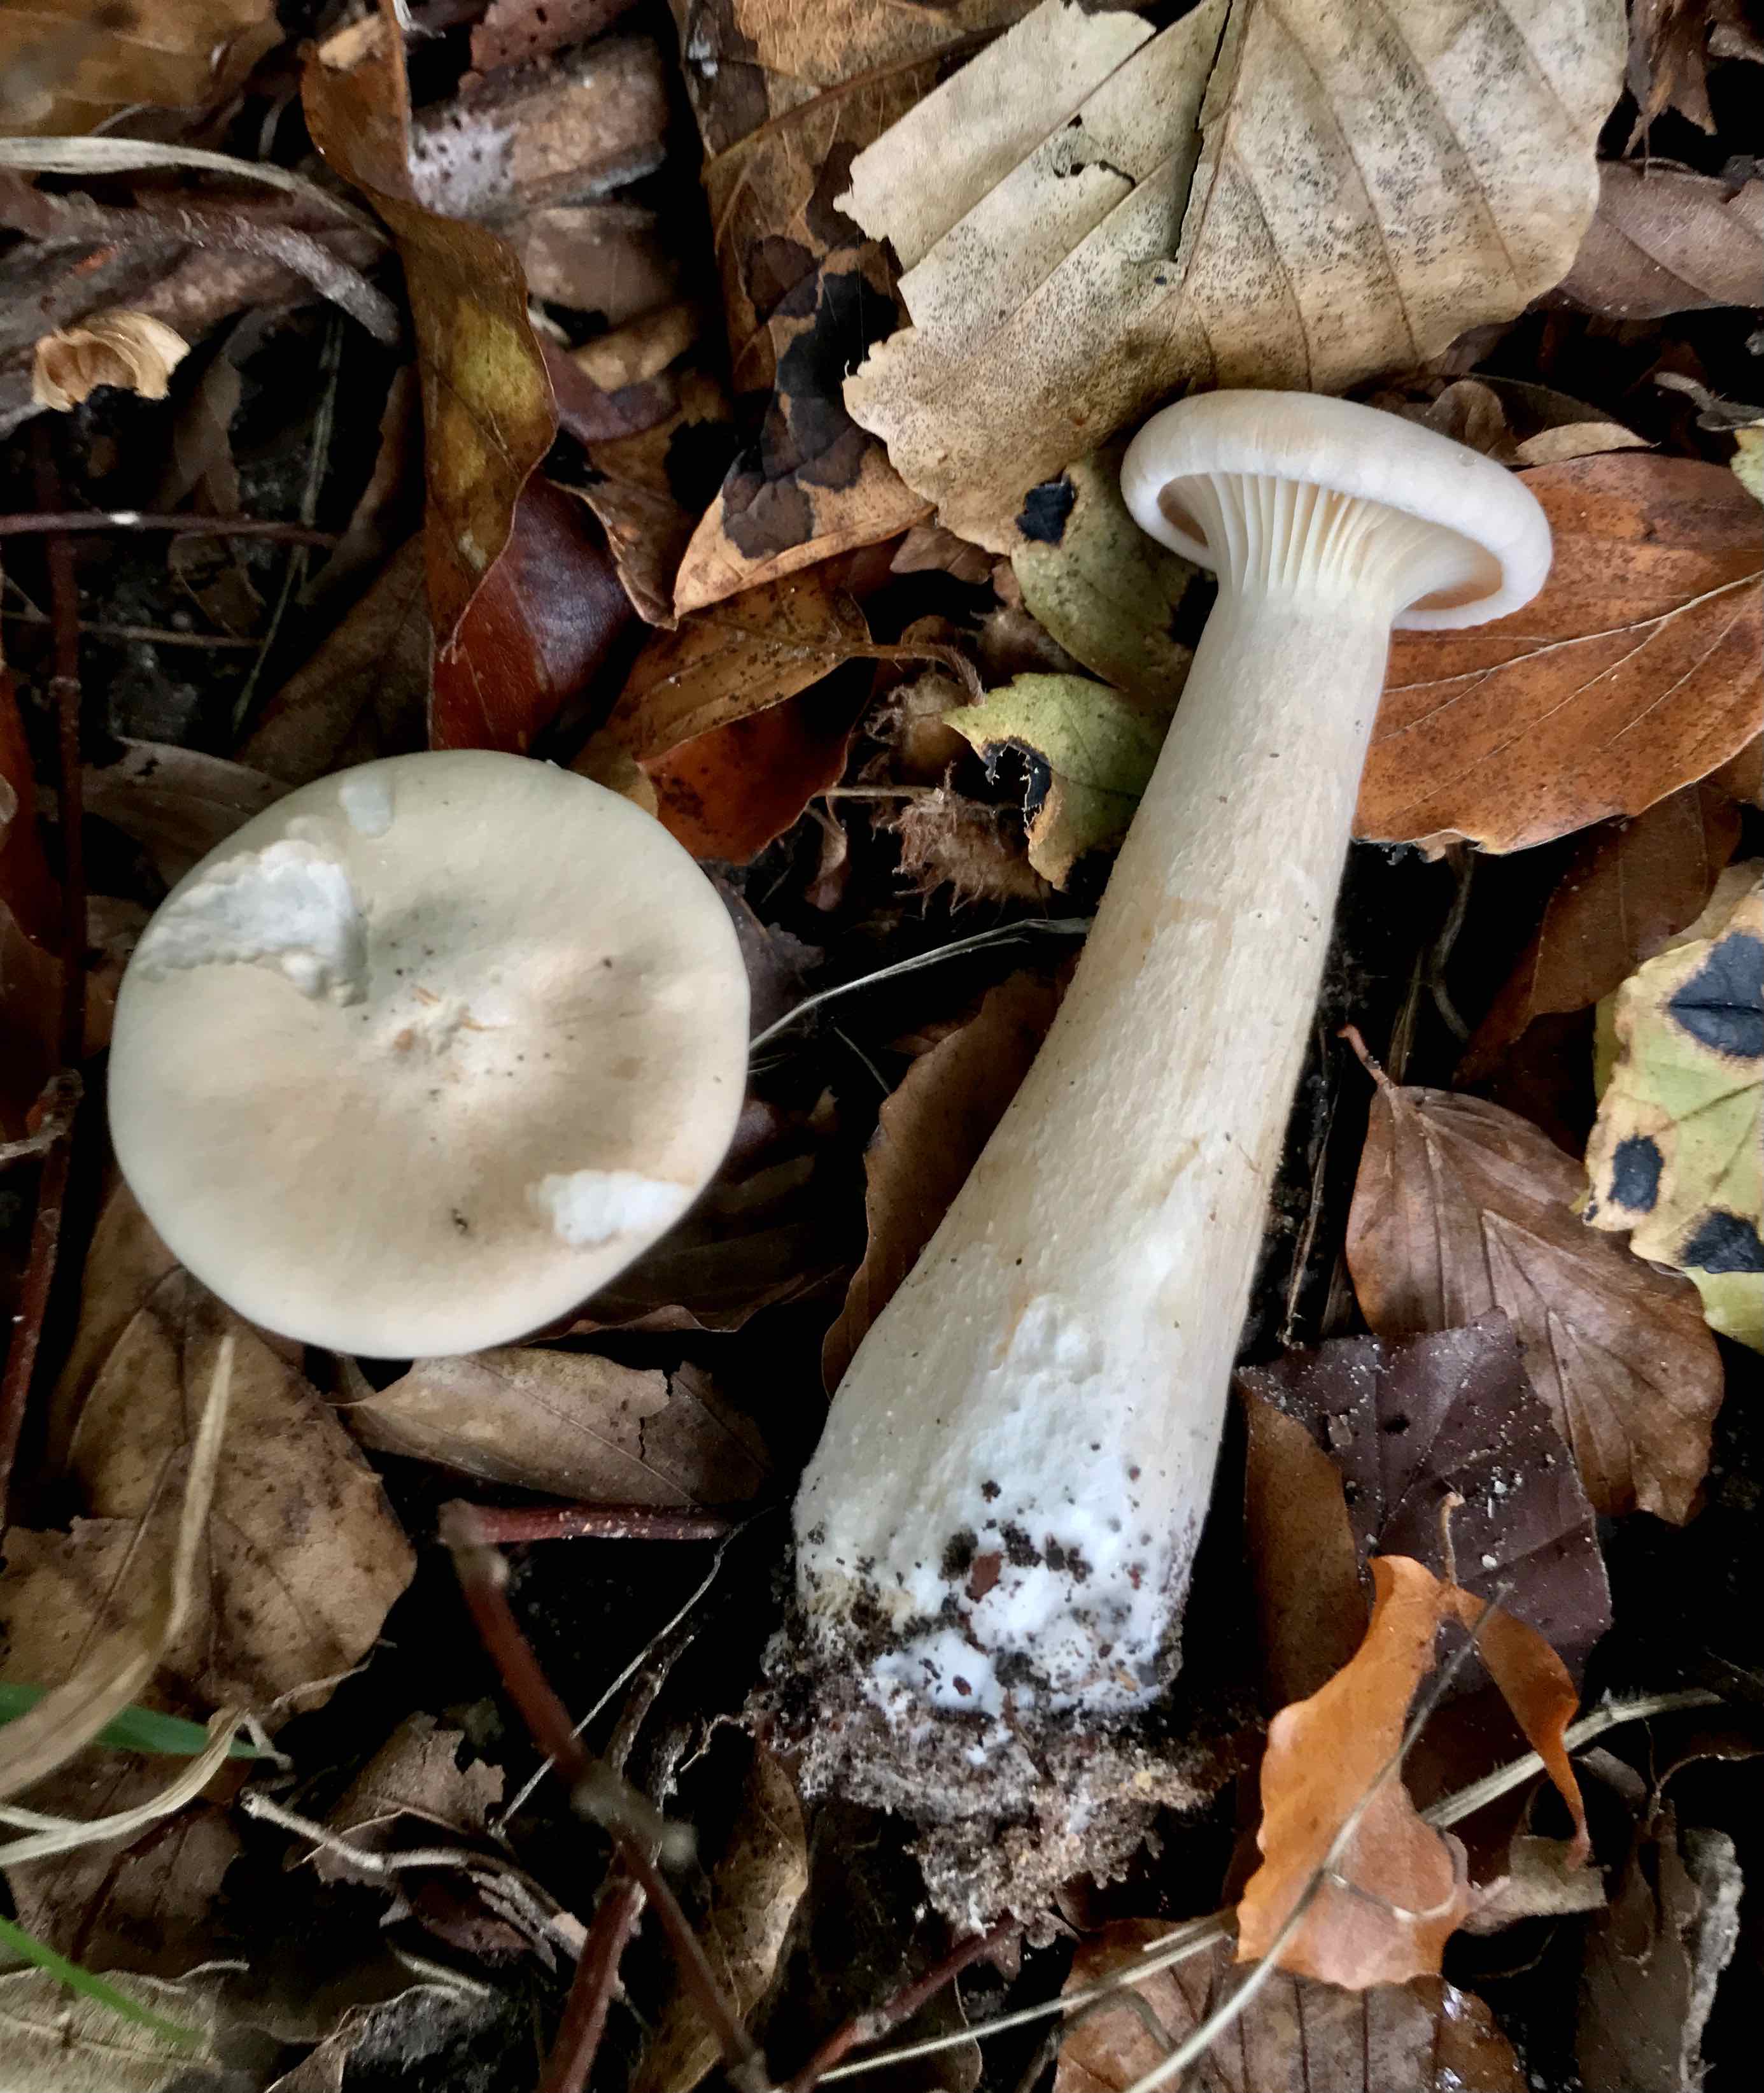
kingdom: Fungi
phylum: Basidiomycota
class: Agaricomycetes
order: Agaricales
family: Tricholomataceae
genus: Infundibulicybe
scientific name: Infundibulicybe geotropa
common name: stor tragthat
